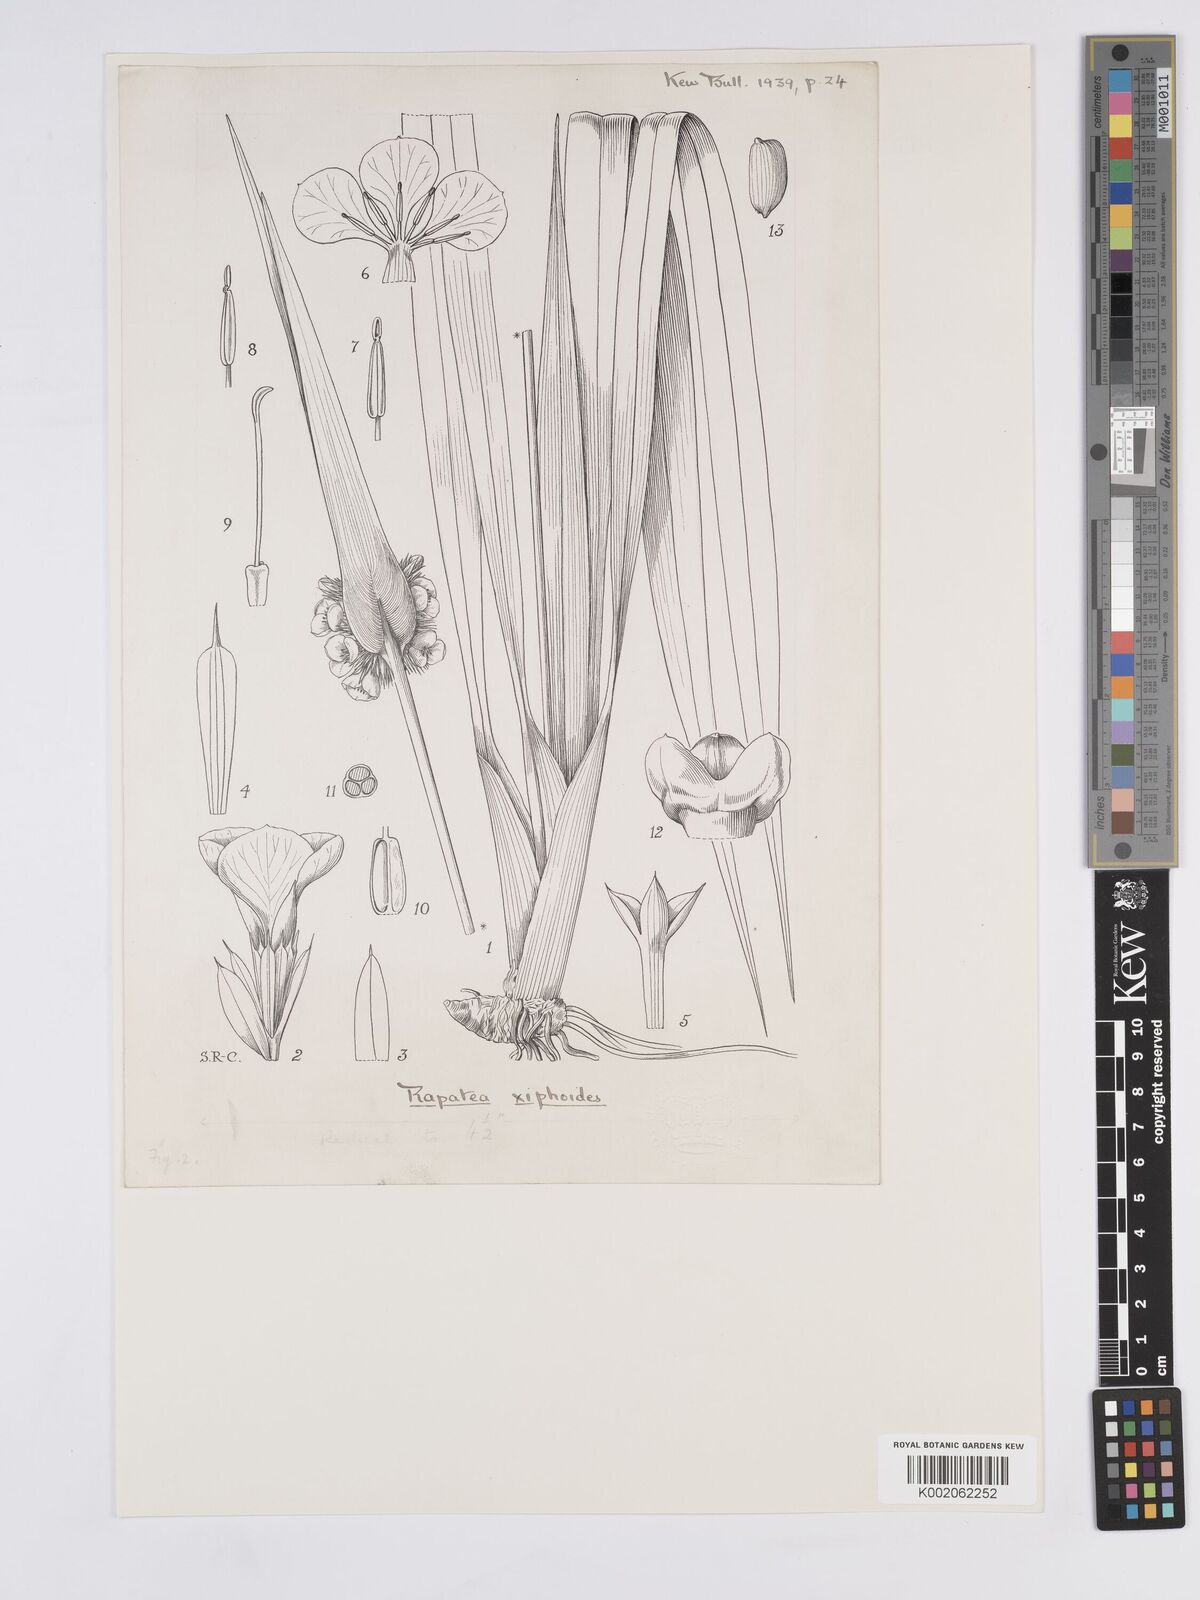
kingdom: Plantae
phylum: Tracheophyta
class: Liliopsida
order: Poales
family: Rapateaceae
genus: Rapatea
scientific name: Rapatea
